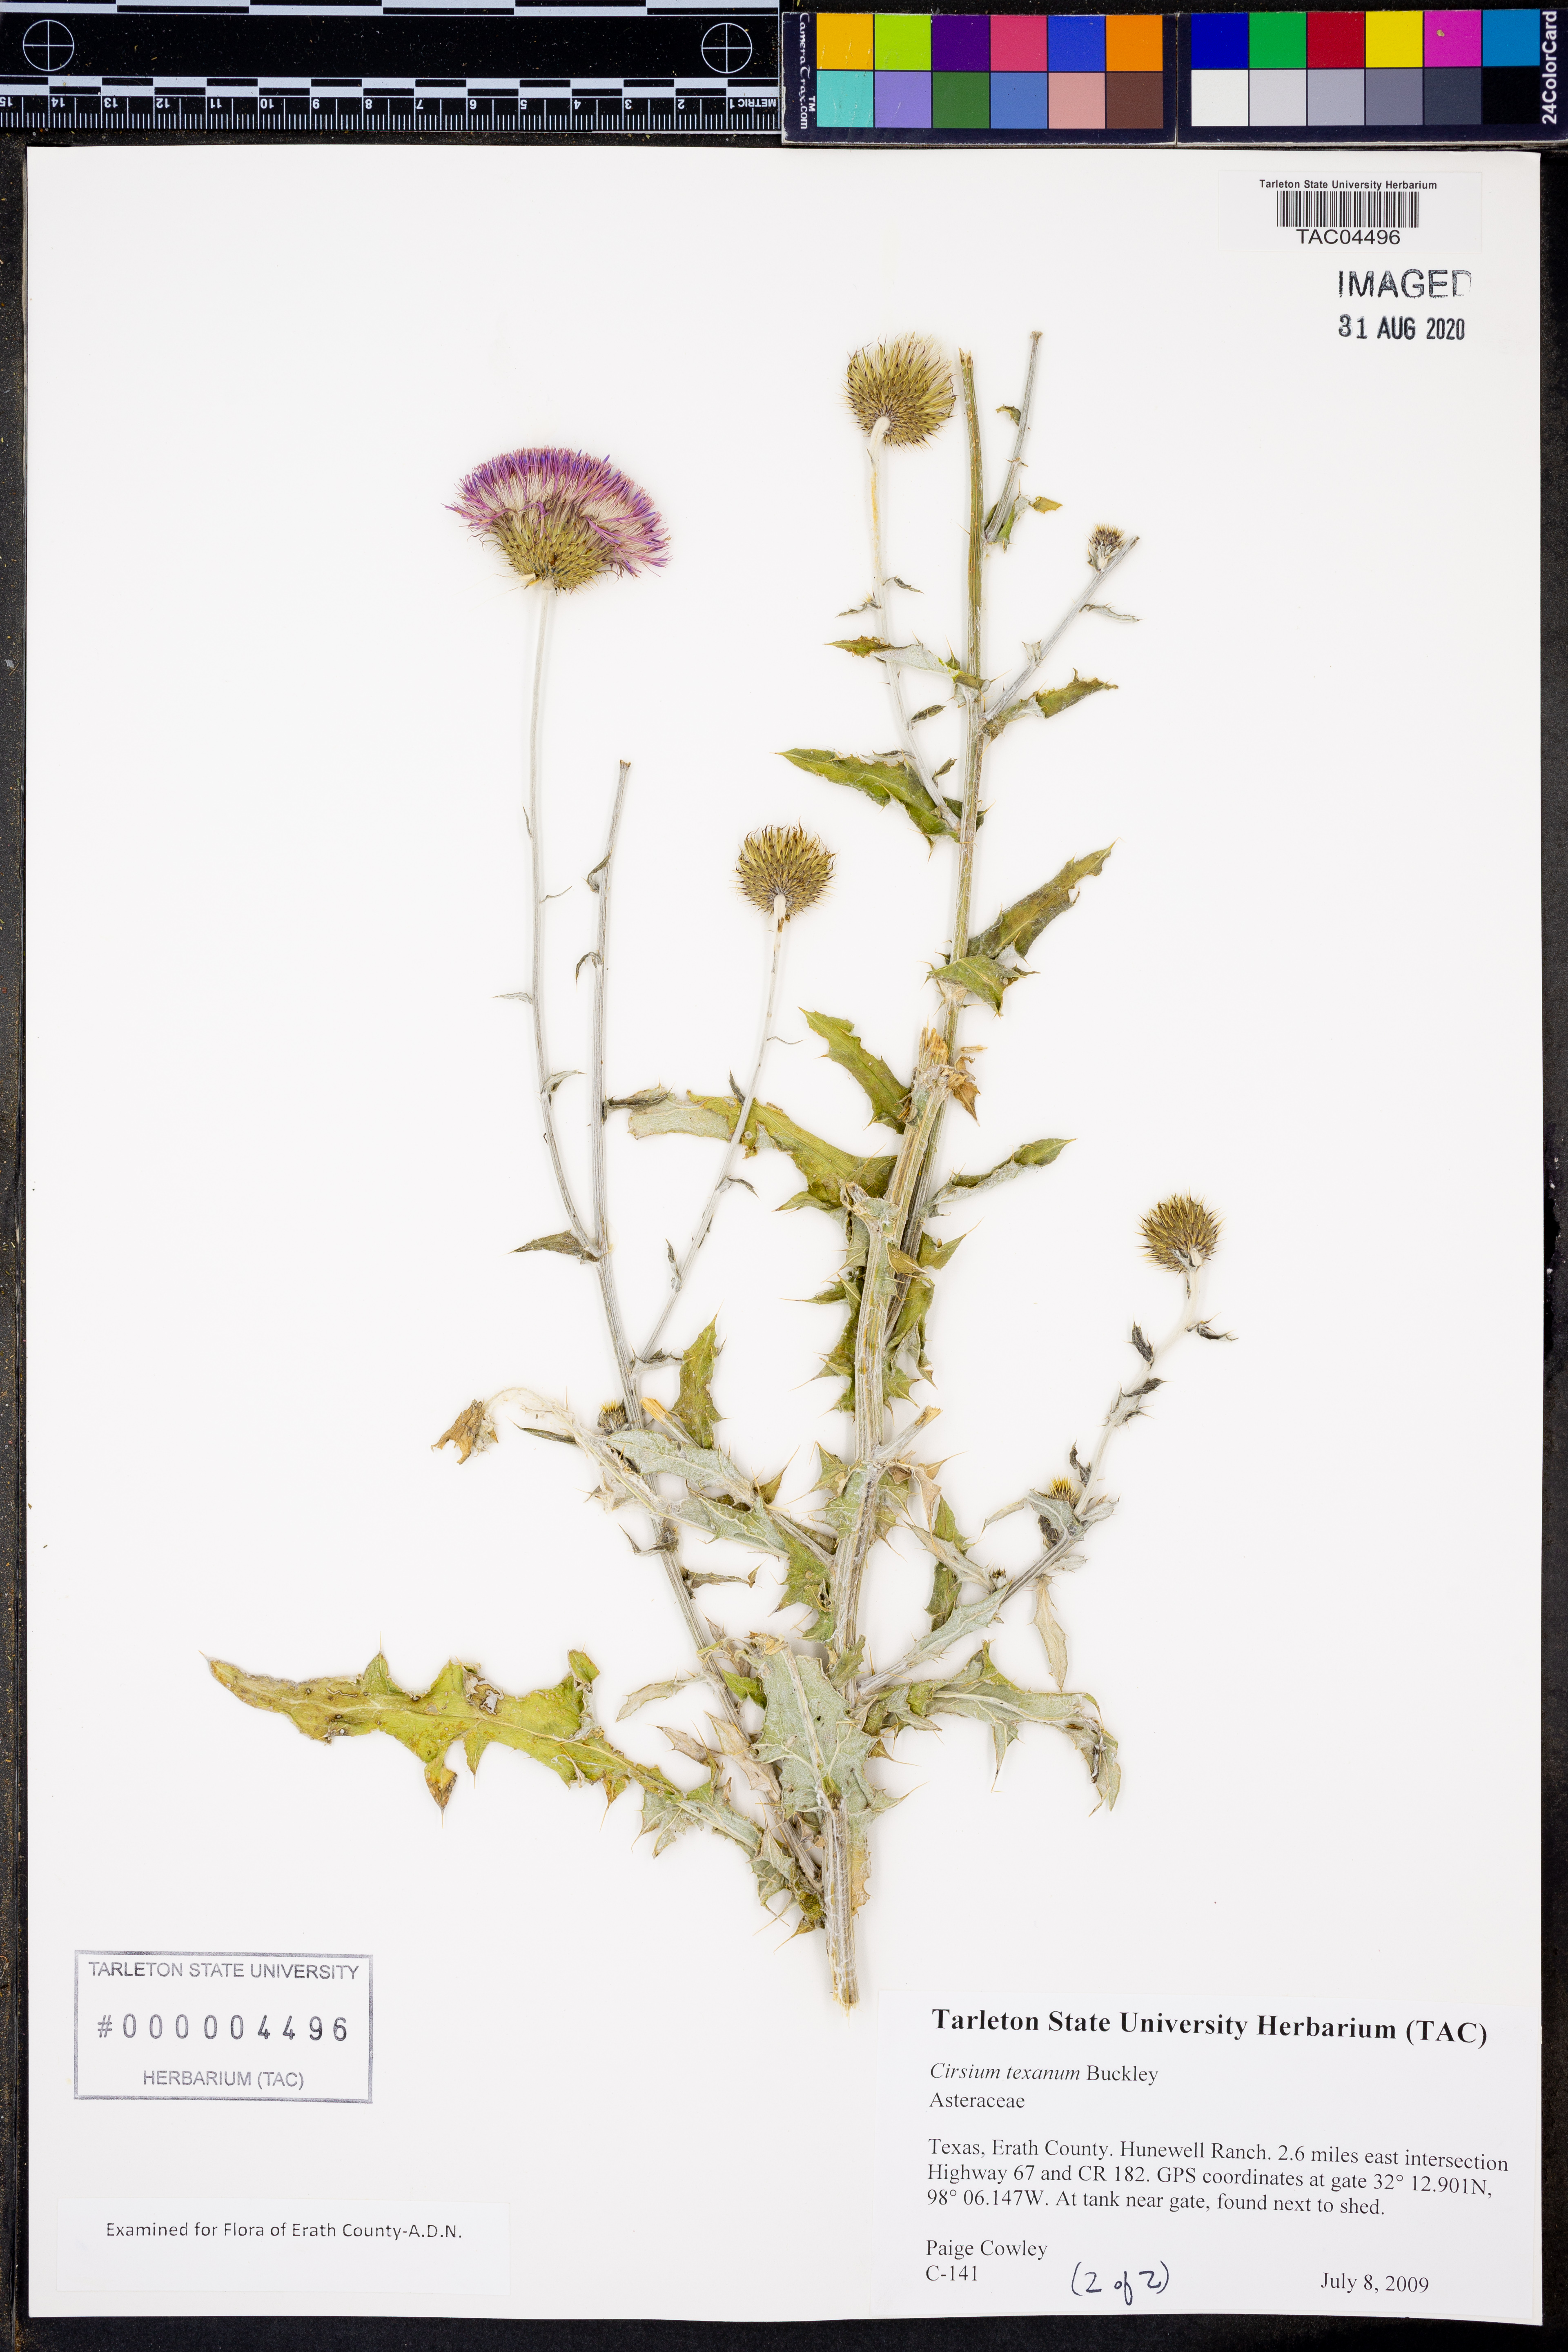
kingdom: Plantae
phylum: Tracheophyta
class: Magnoliopsida
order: Asterales
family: Asteraceae
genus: Cirsium
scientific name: Cirsium texanum
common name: Texas purple thistle
